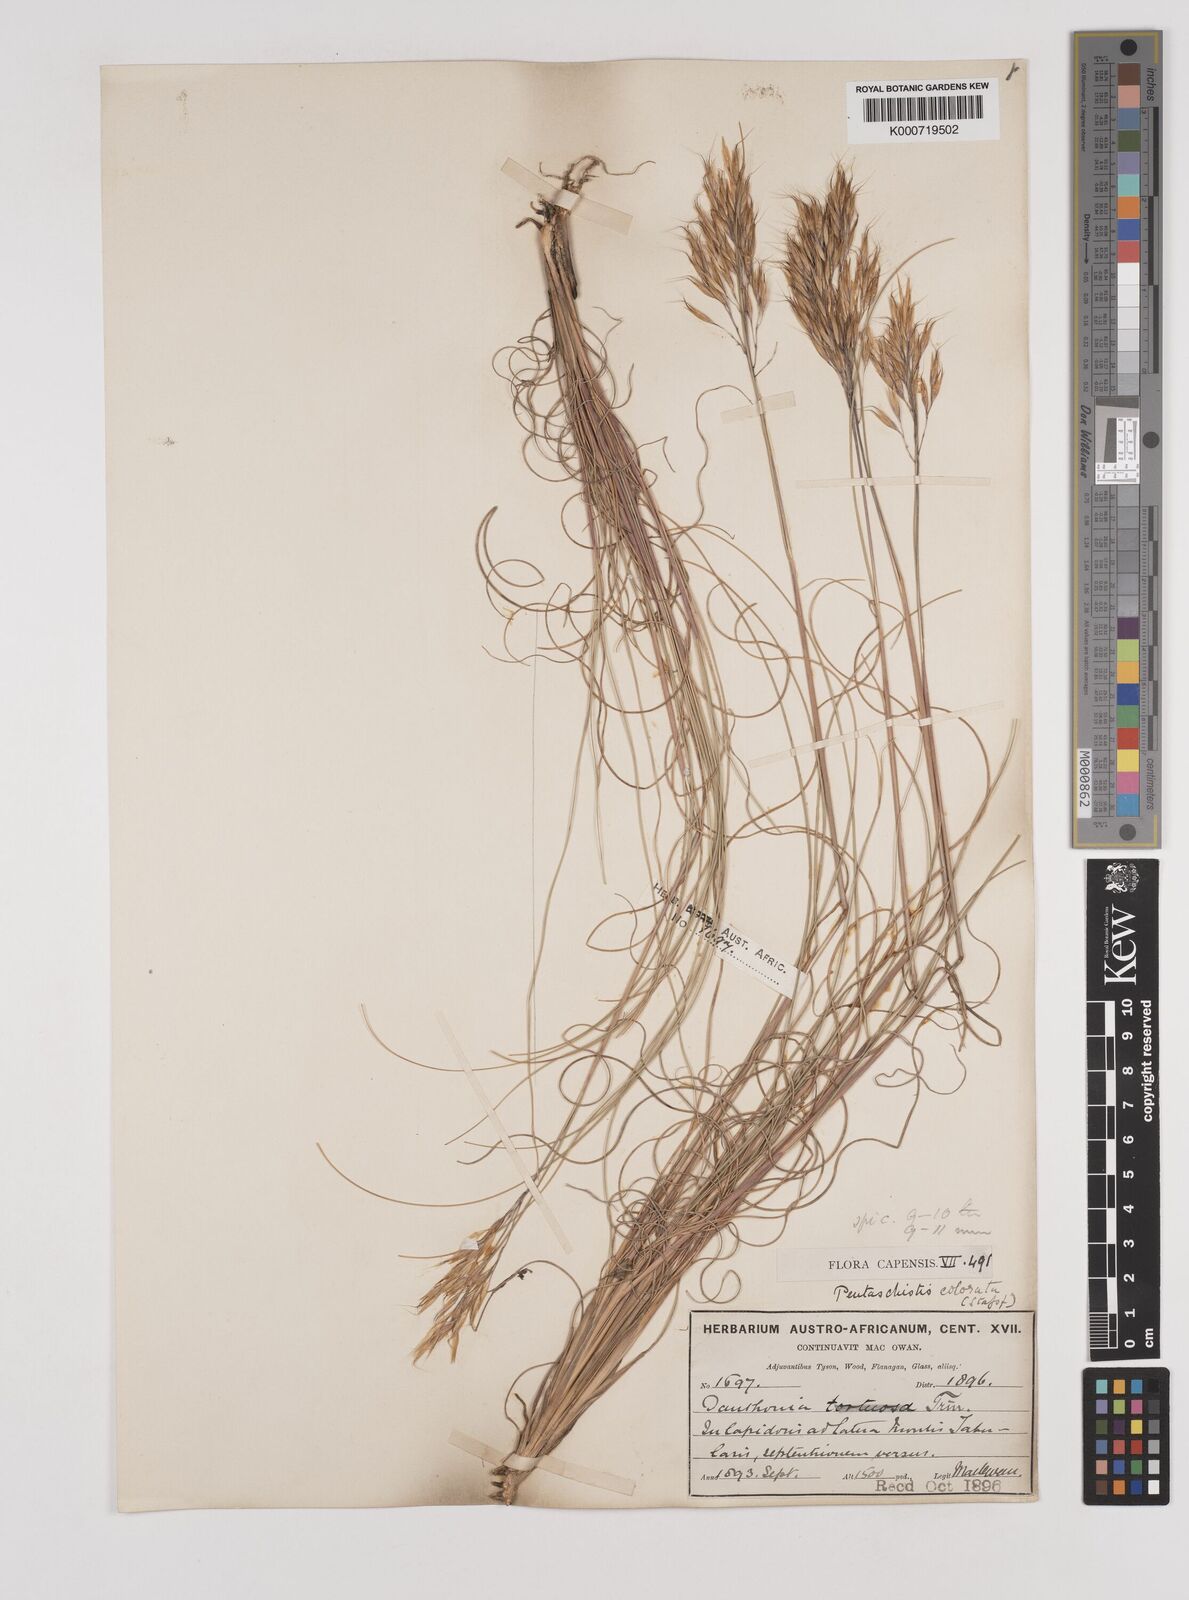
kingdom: Plantae
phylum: Tracheophyta
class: Liliopsida
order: Poales
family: Poaceae
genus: Pentameris
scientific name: Pentameris colorata
